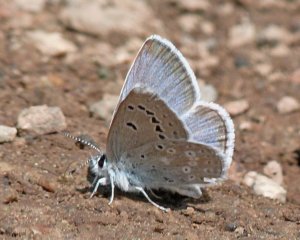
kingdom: Animalia
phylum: Arthropoda
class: Insecta
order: Lepidoptera
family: Lycaenidae
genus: Icaricia
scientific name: Icaricia icarioides
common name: Boisduval's Blue
